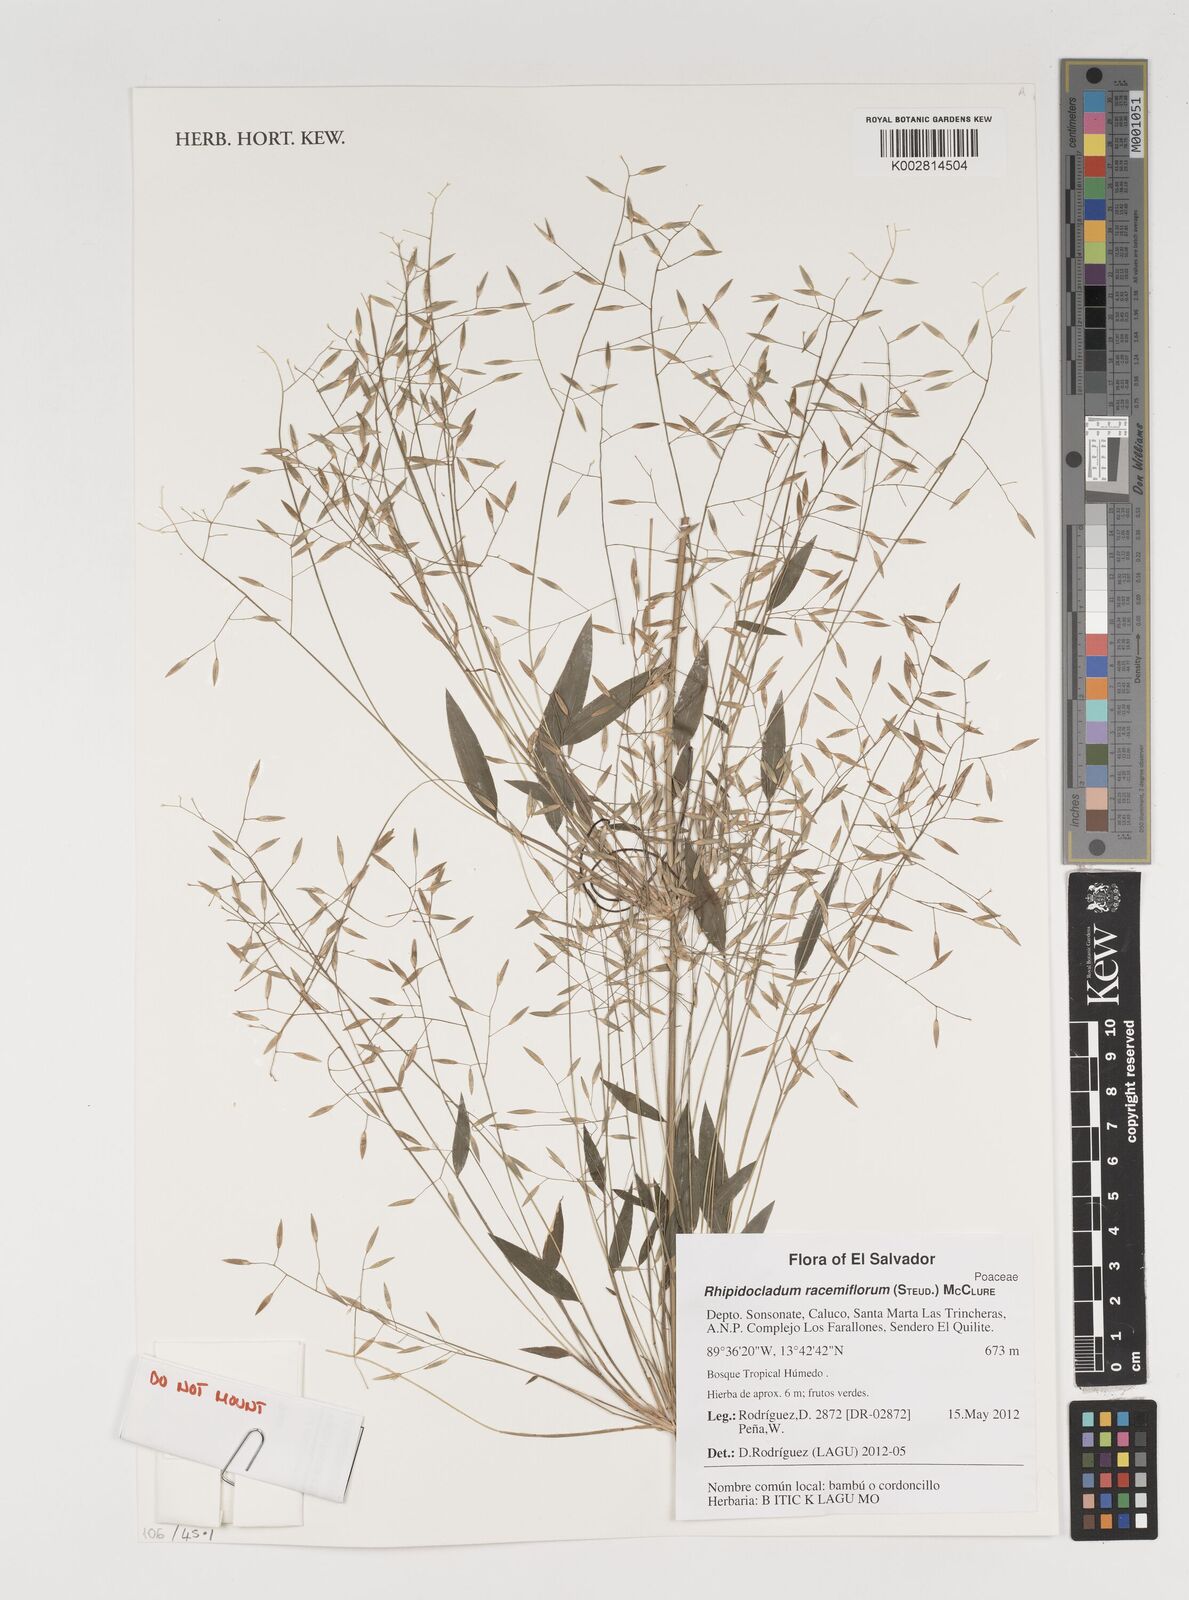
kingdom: Plantae
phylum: Tracheophyta
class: Liliopsida
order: Poales
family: Poaceae
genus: Rhipidocladum
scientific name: Rhipidocladum racemiflorum
